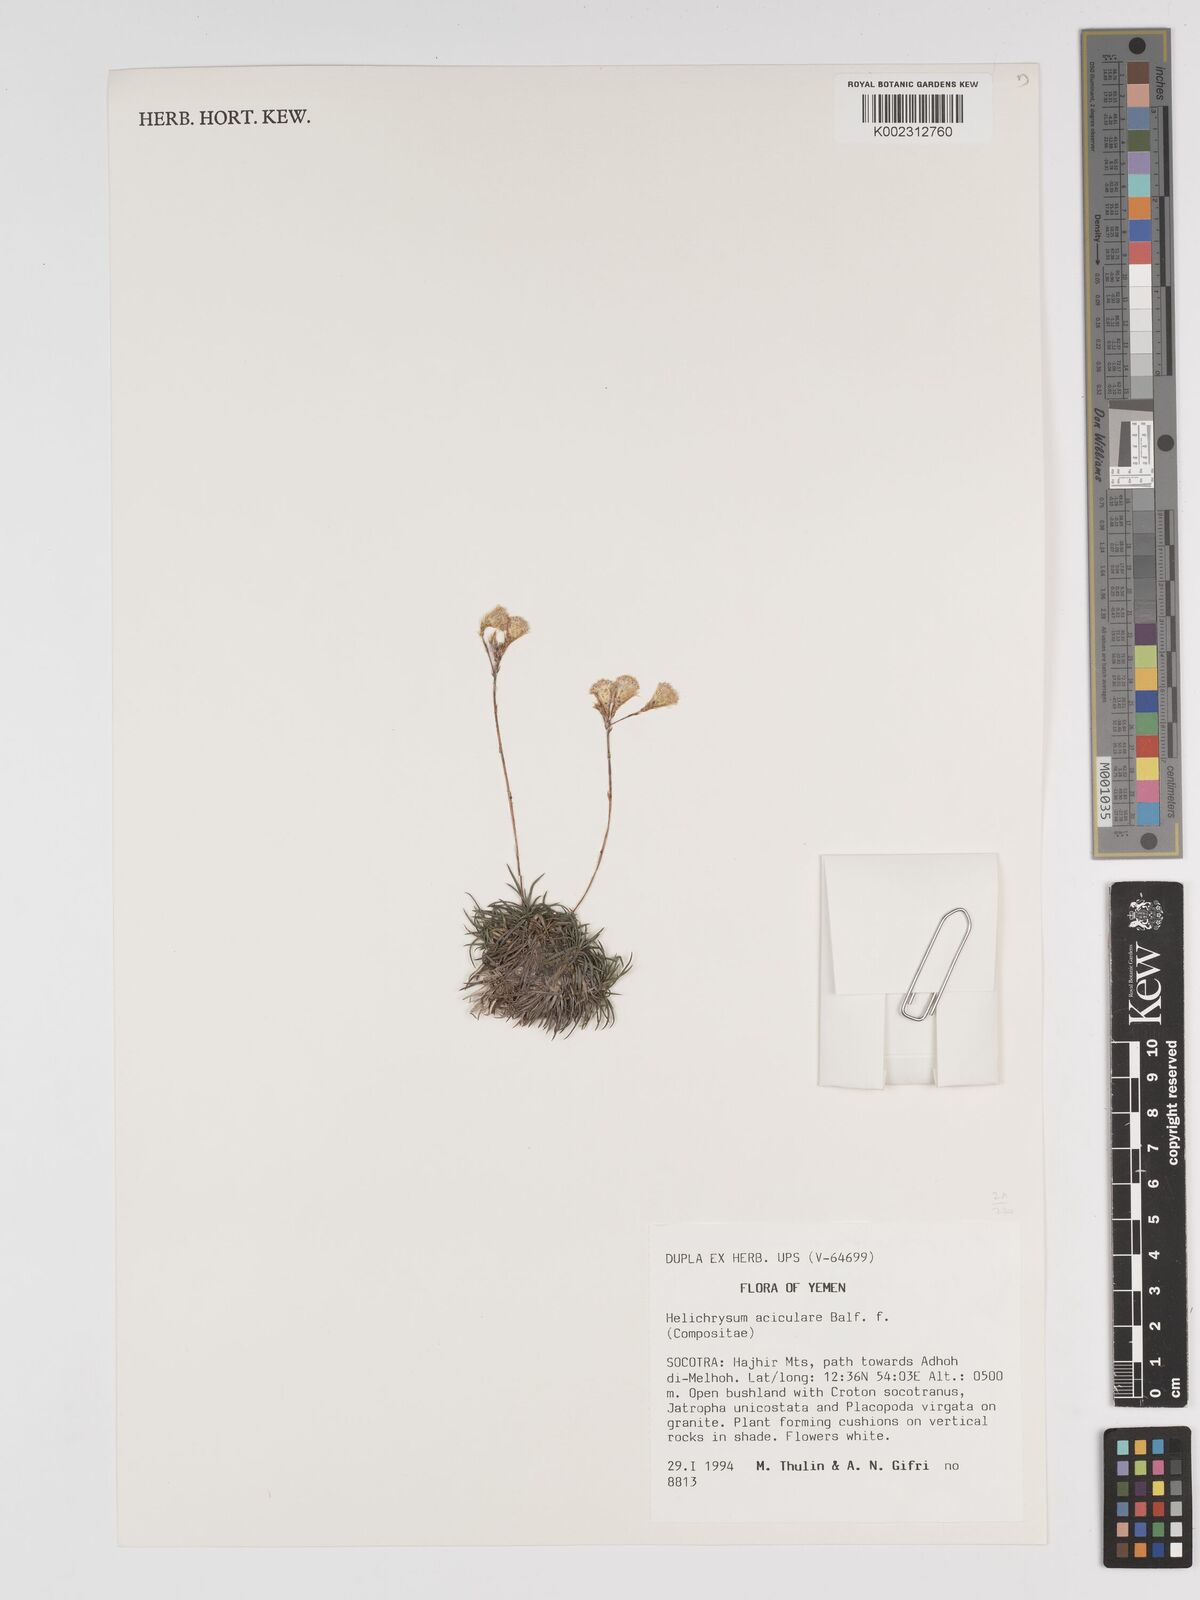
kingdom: Plantae
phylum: Tracheophyta
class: Magnoliopsida
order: Asterales
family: Asteraceae
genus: Libinhania
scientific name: Libinhania acicularis
